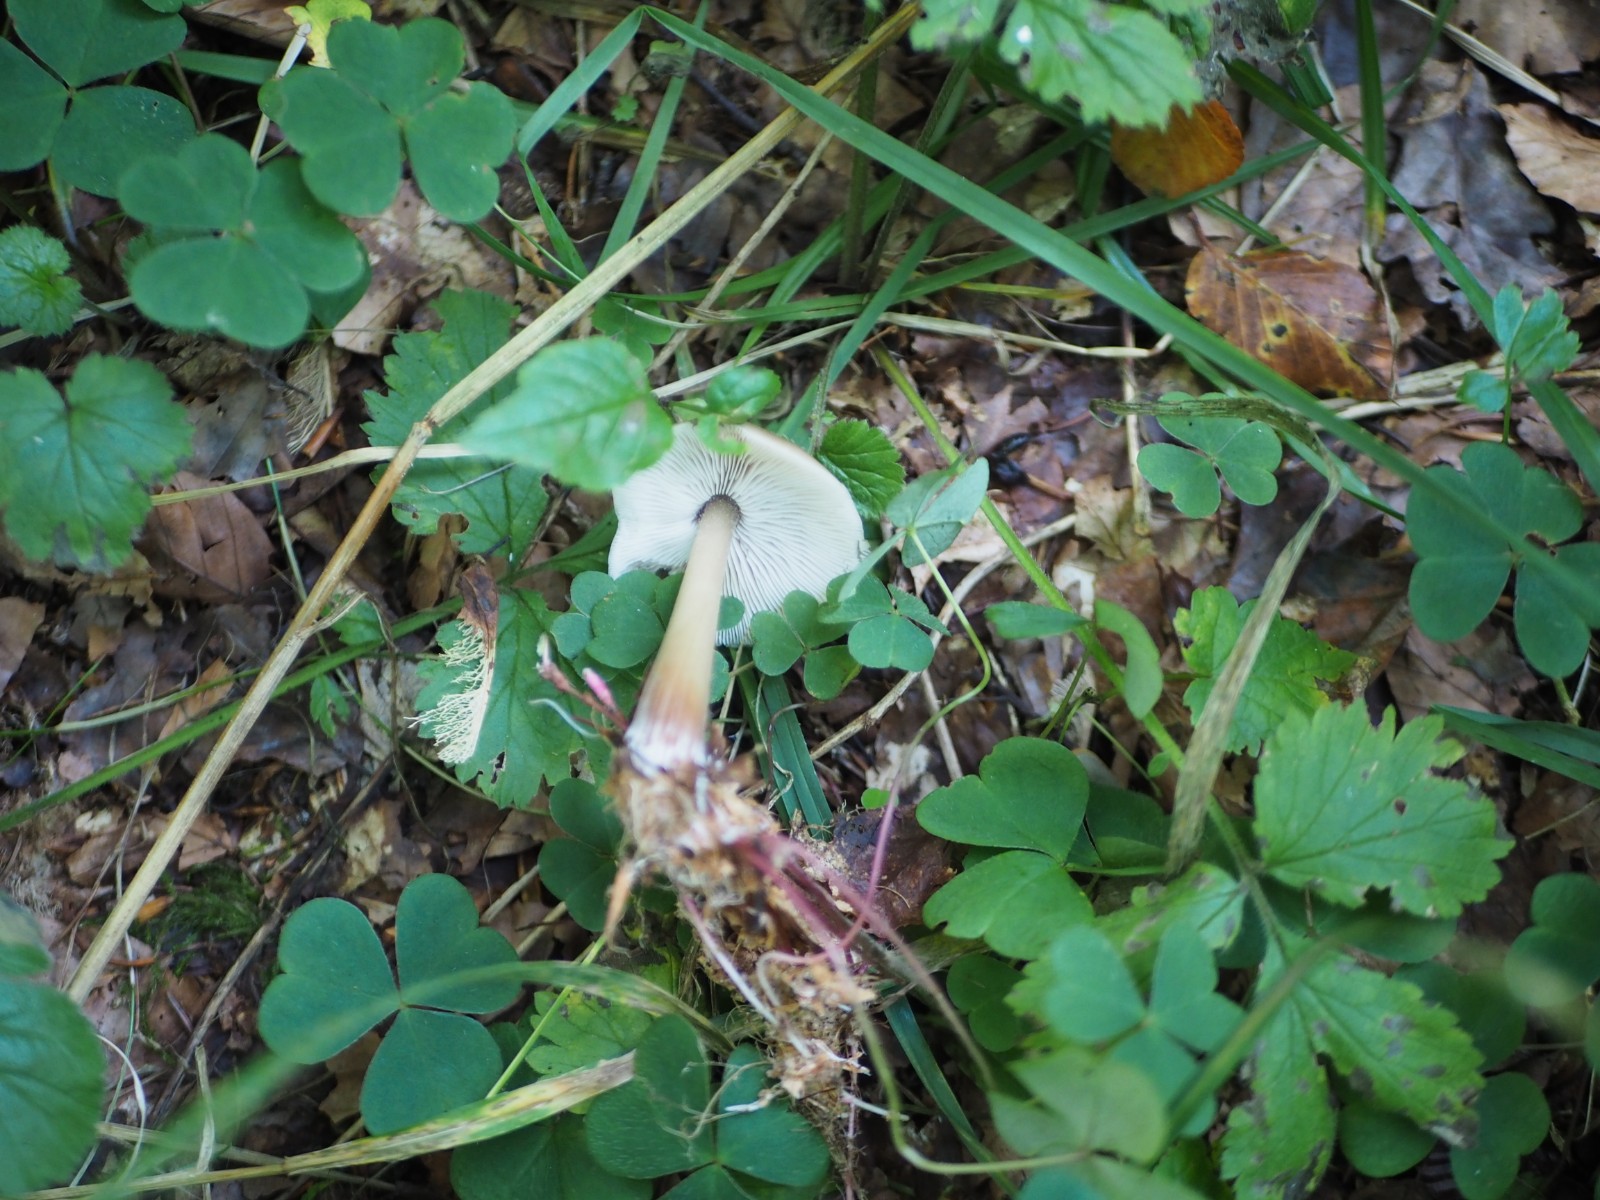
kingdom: Fungi
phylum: Basidiomycota
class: Agaricomycetes
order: Agaricales
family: Omphalotaceae
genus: Rhodocollybia
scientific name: Rhodocollybia asema
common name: horngrå fladhat
